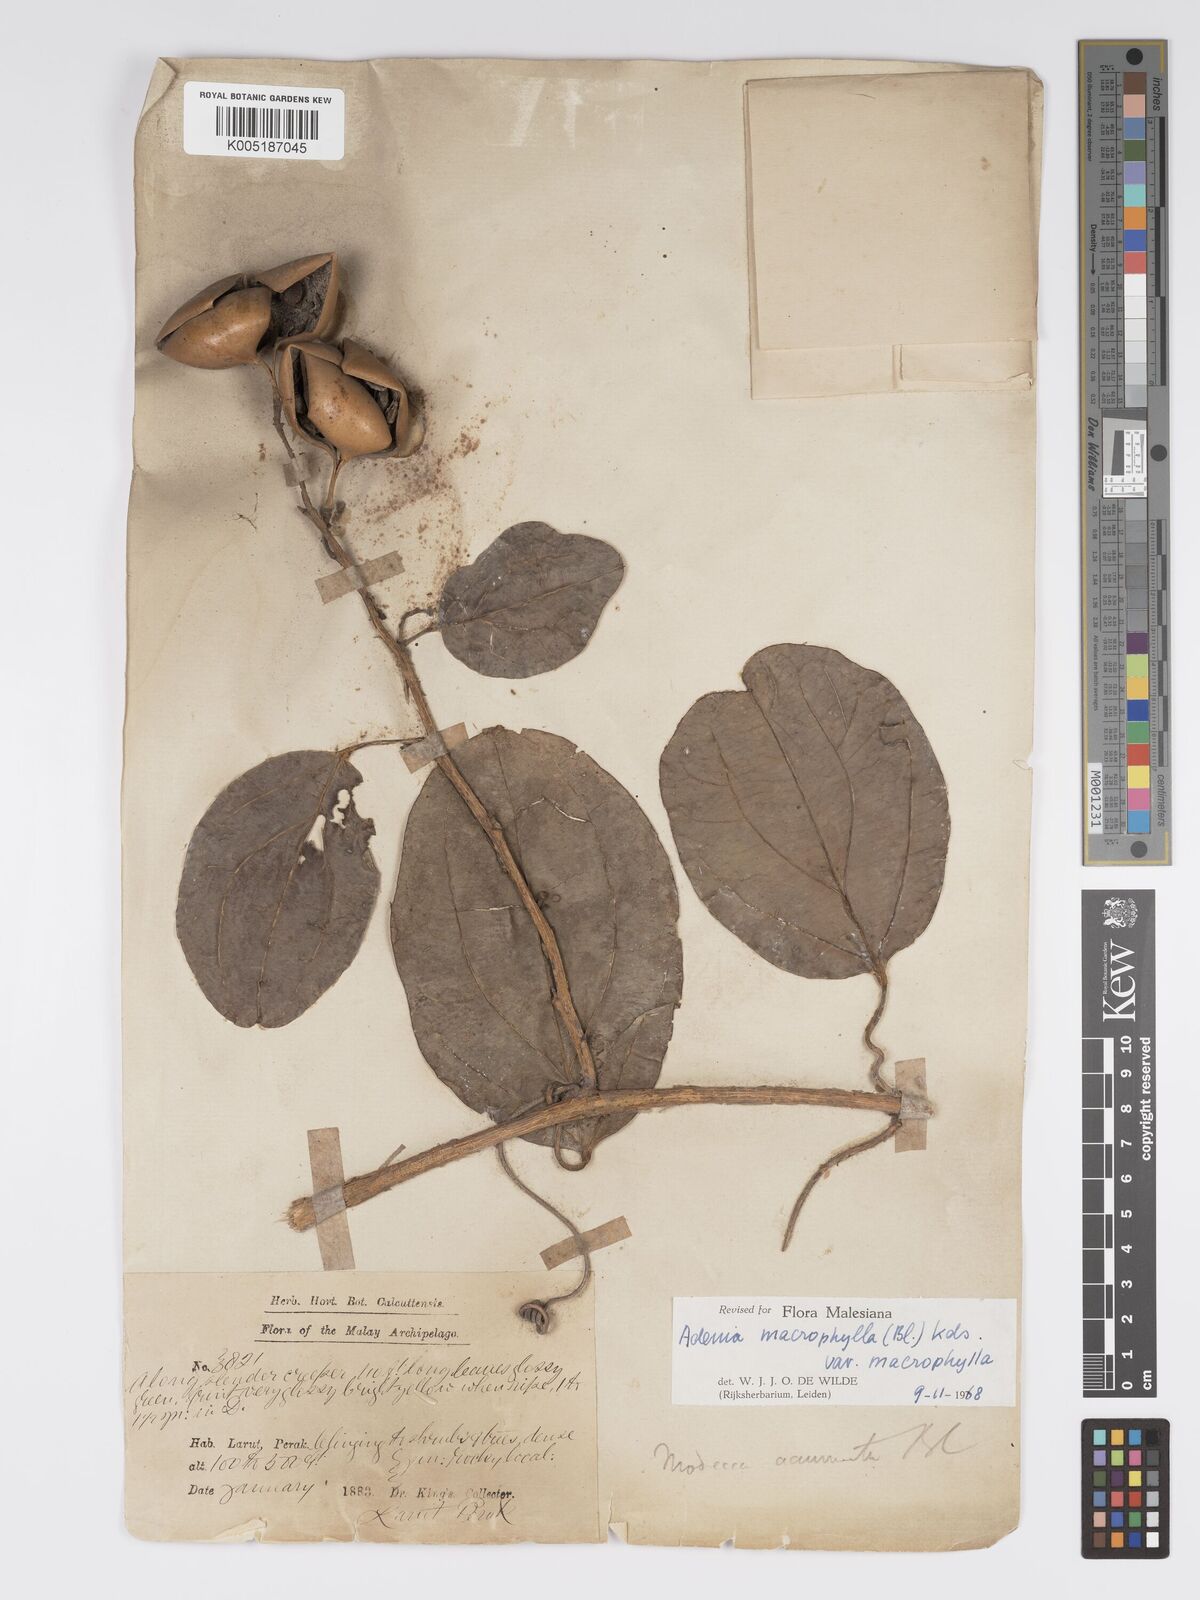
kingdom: Plantae
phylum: Tracheophyta
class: Magnoliopsida
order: Malpighiales
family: Passifloraceae
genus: Adenia
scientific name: Adenia macrophylla
